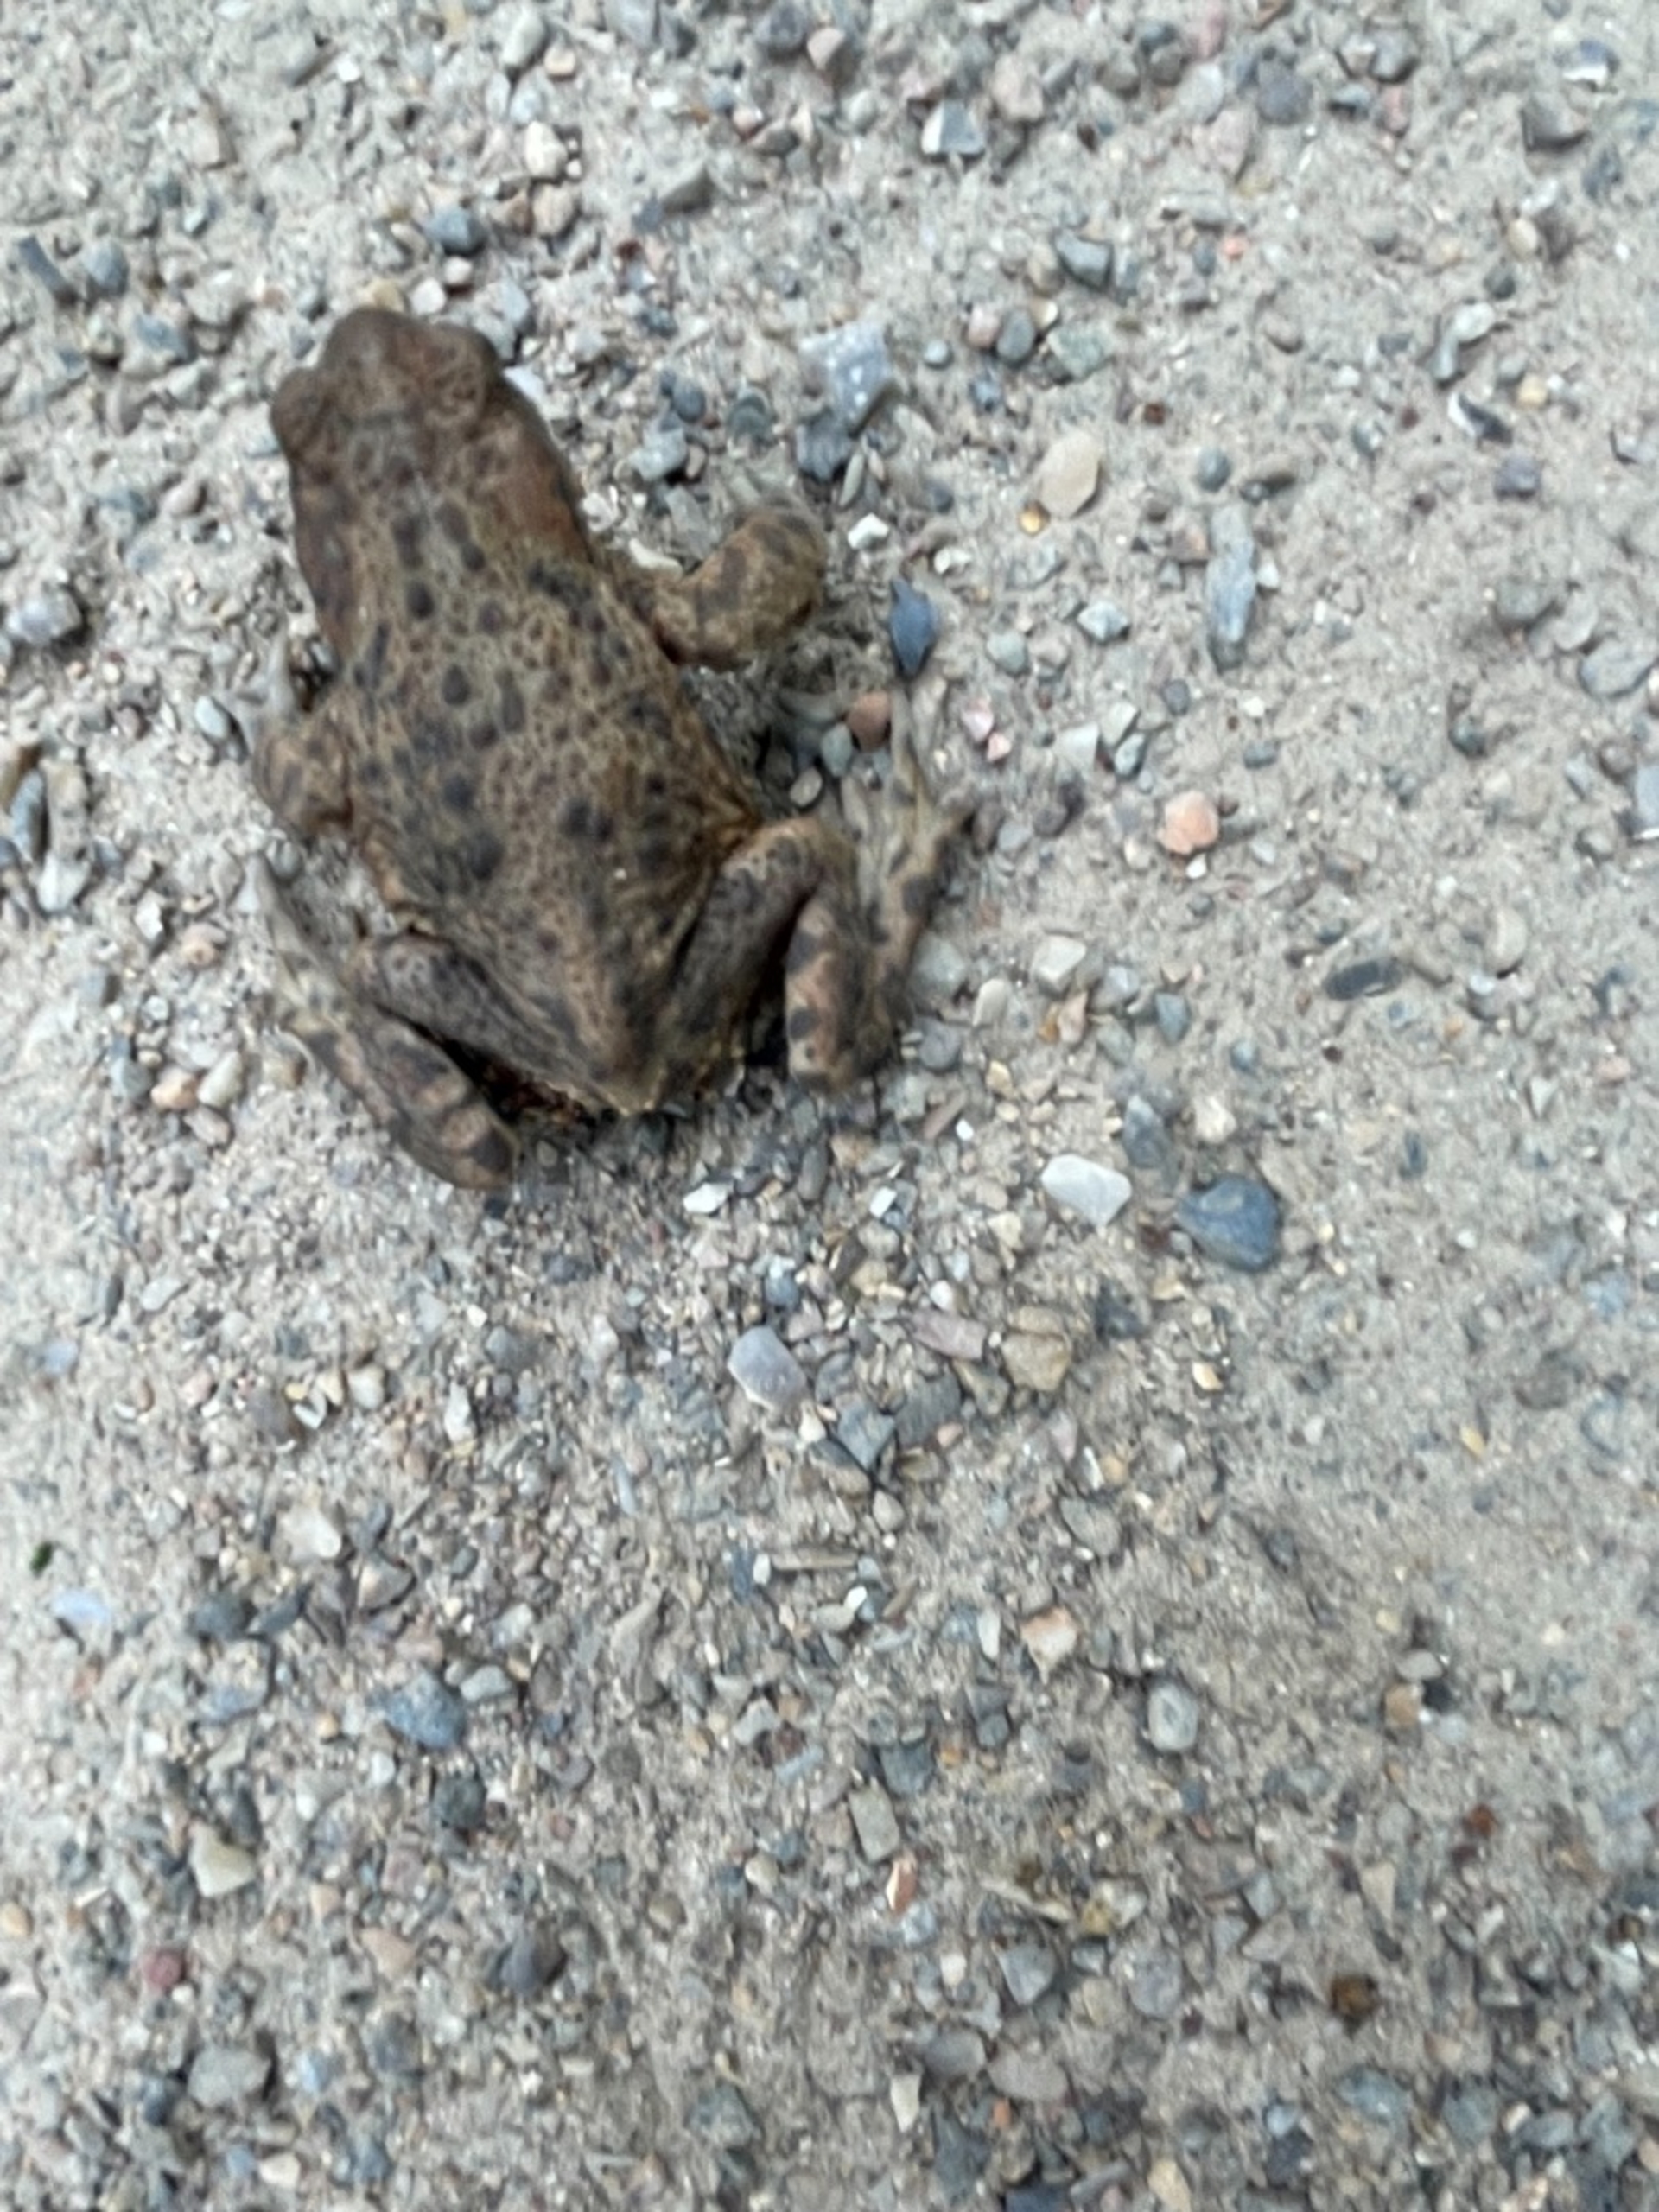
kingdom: Animalia
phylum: Chordata
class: Amphibia
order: Anura
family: Bufonidae
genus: Bufo
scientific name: Bufo bufo
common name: Skrubtudse
